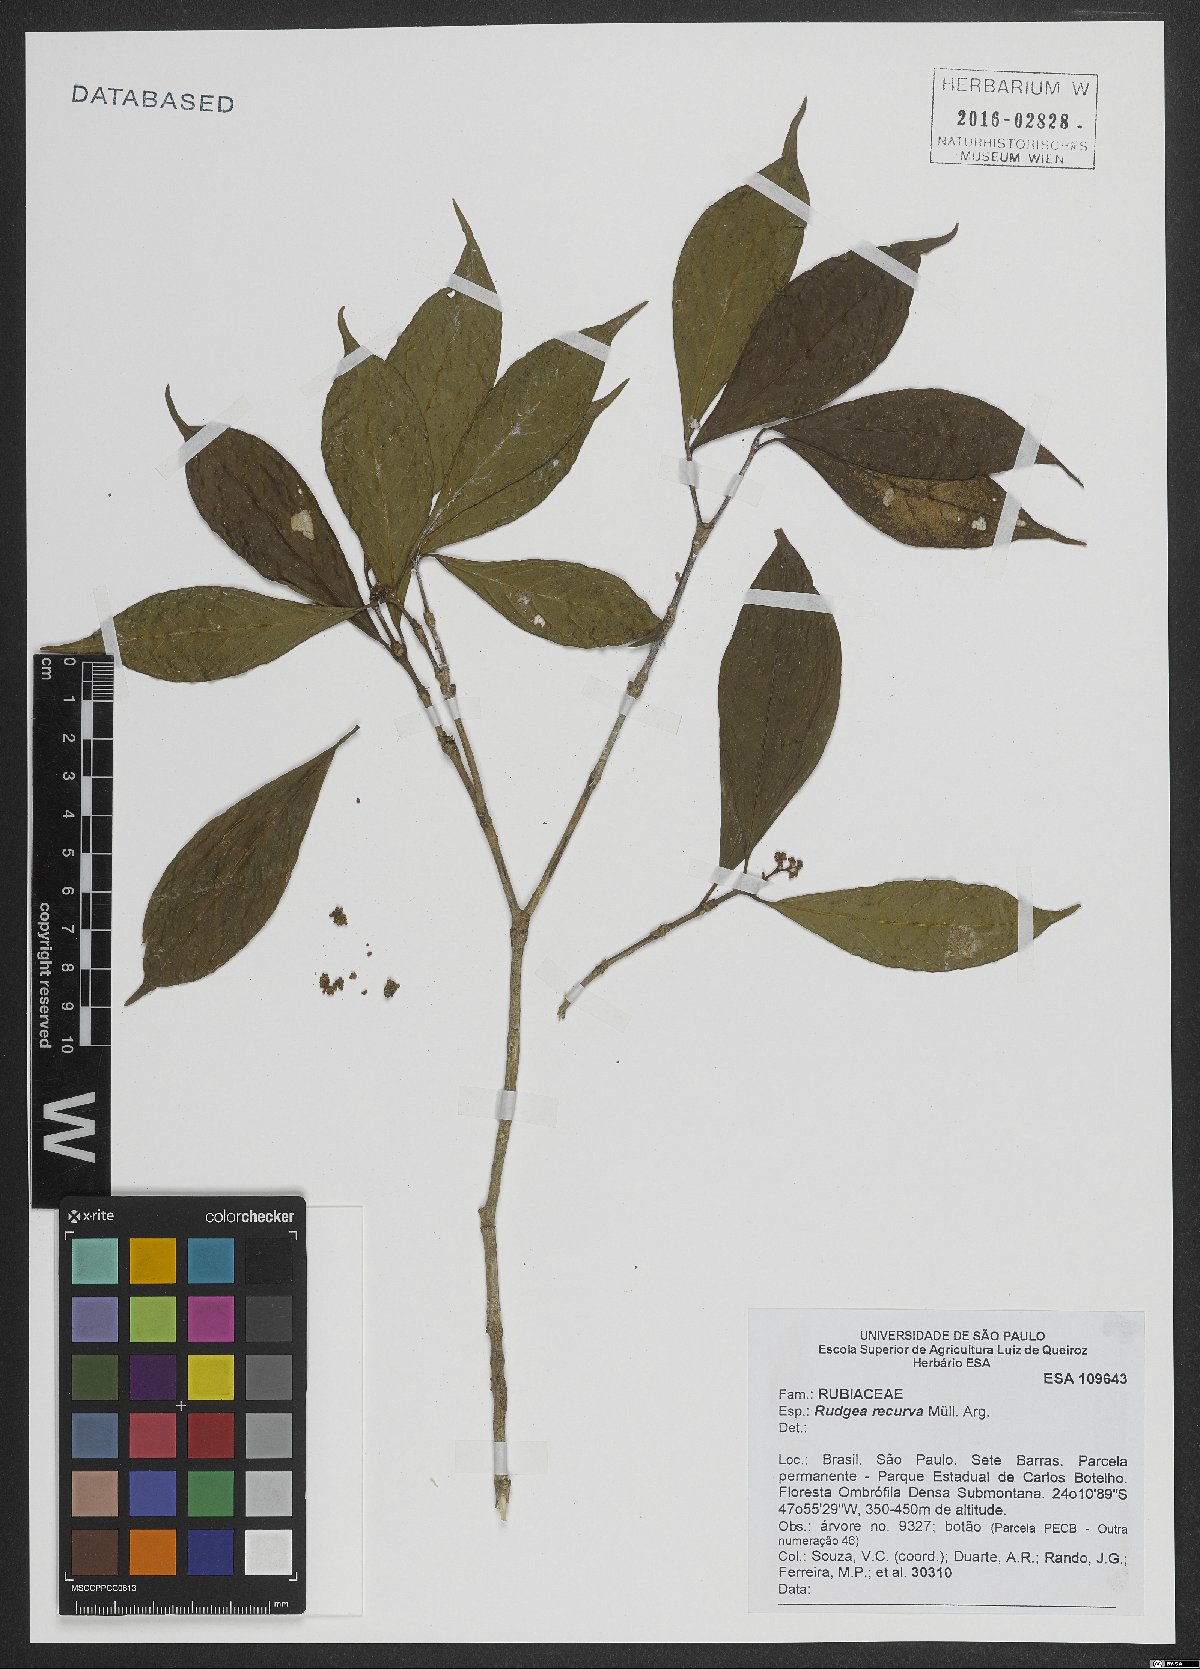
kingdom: Plantae
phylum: Tracheophyta
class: Magnoliopsida
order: Gentianales
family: Rubiaceae
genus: Rudgea
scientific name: Rudgea recurva
